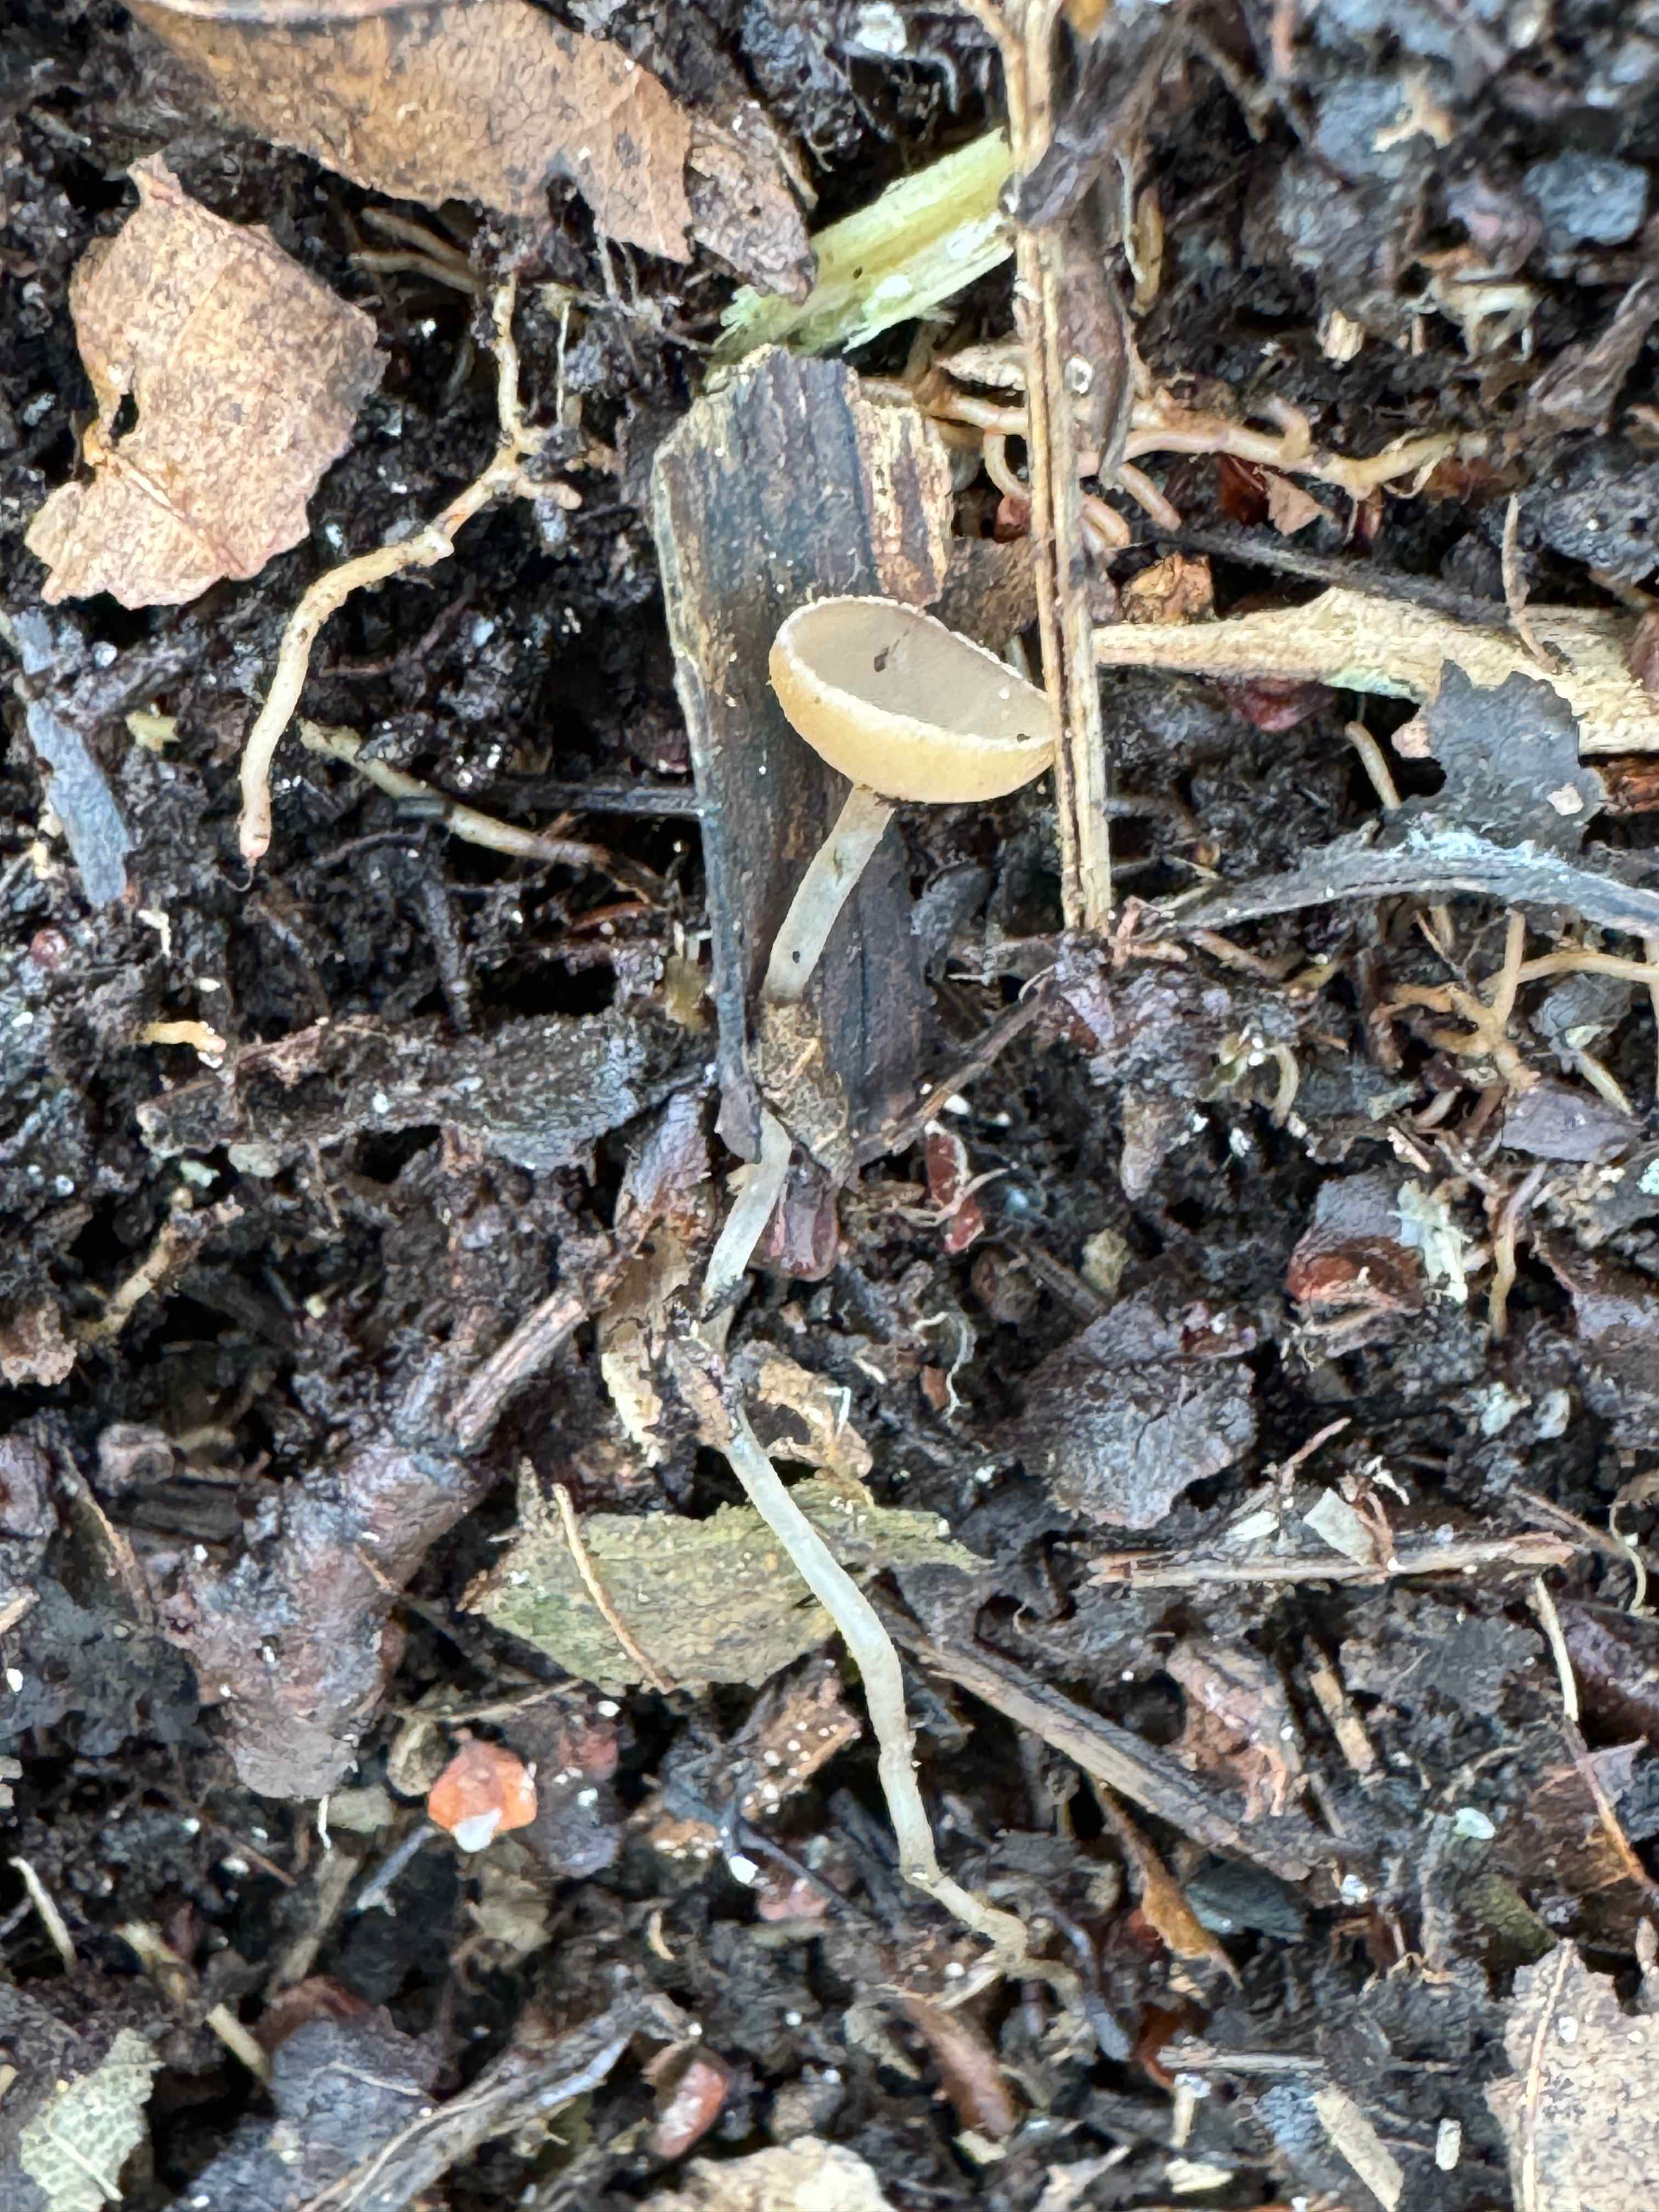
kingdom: Fungi
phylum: Ascomycota
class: Leotiomycetes
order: Helotiales
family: Sclerotiniaceae
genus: Ciboria
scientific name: Ciboria amentacea
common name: ellerakle-knoldskive
